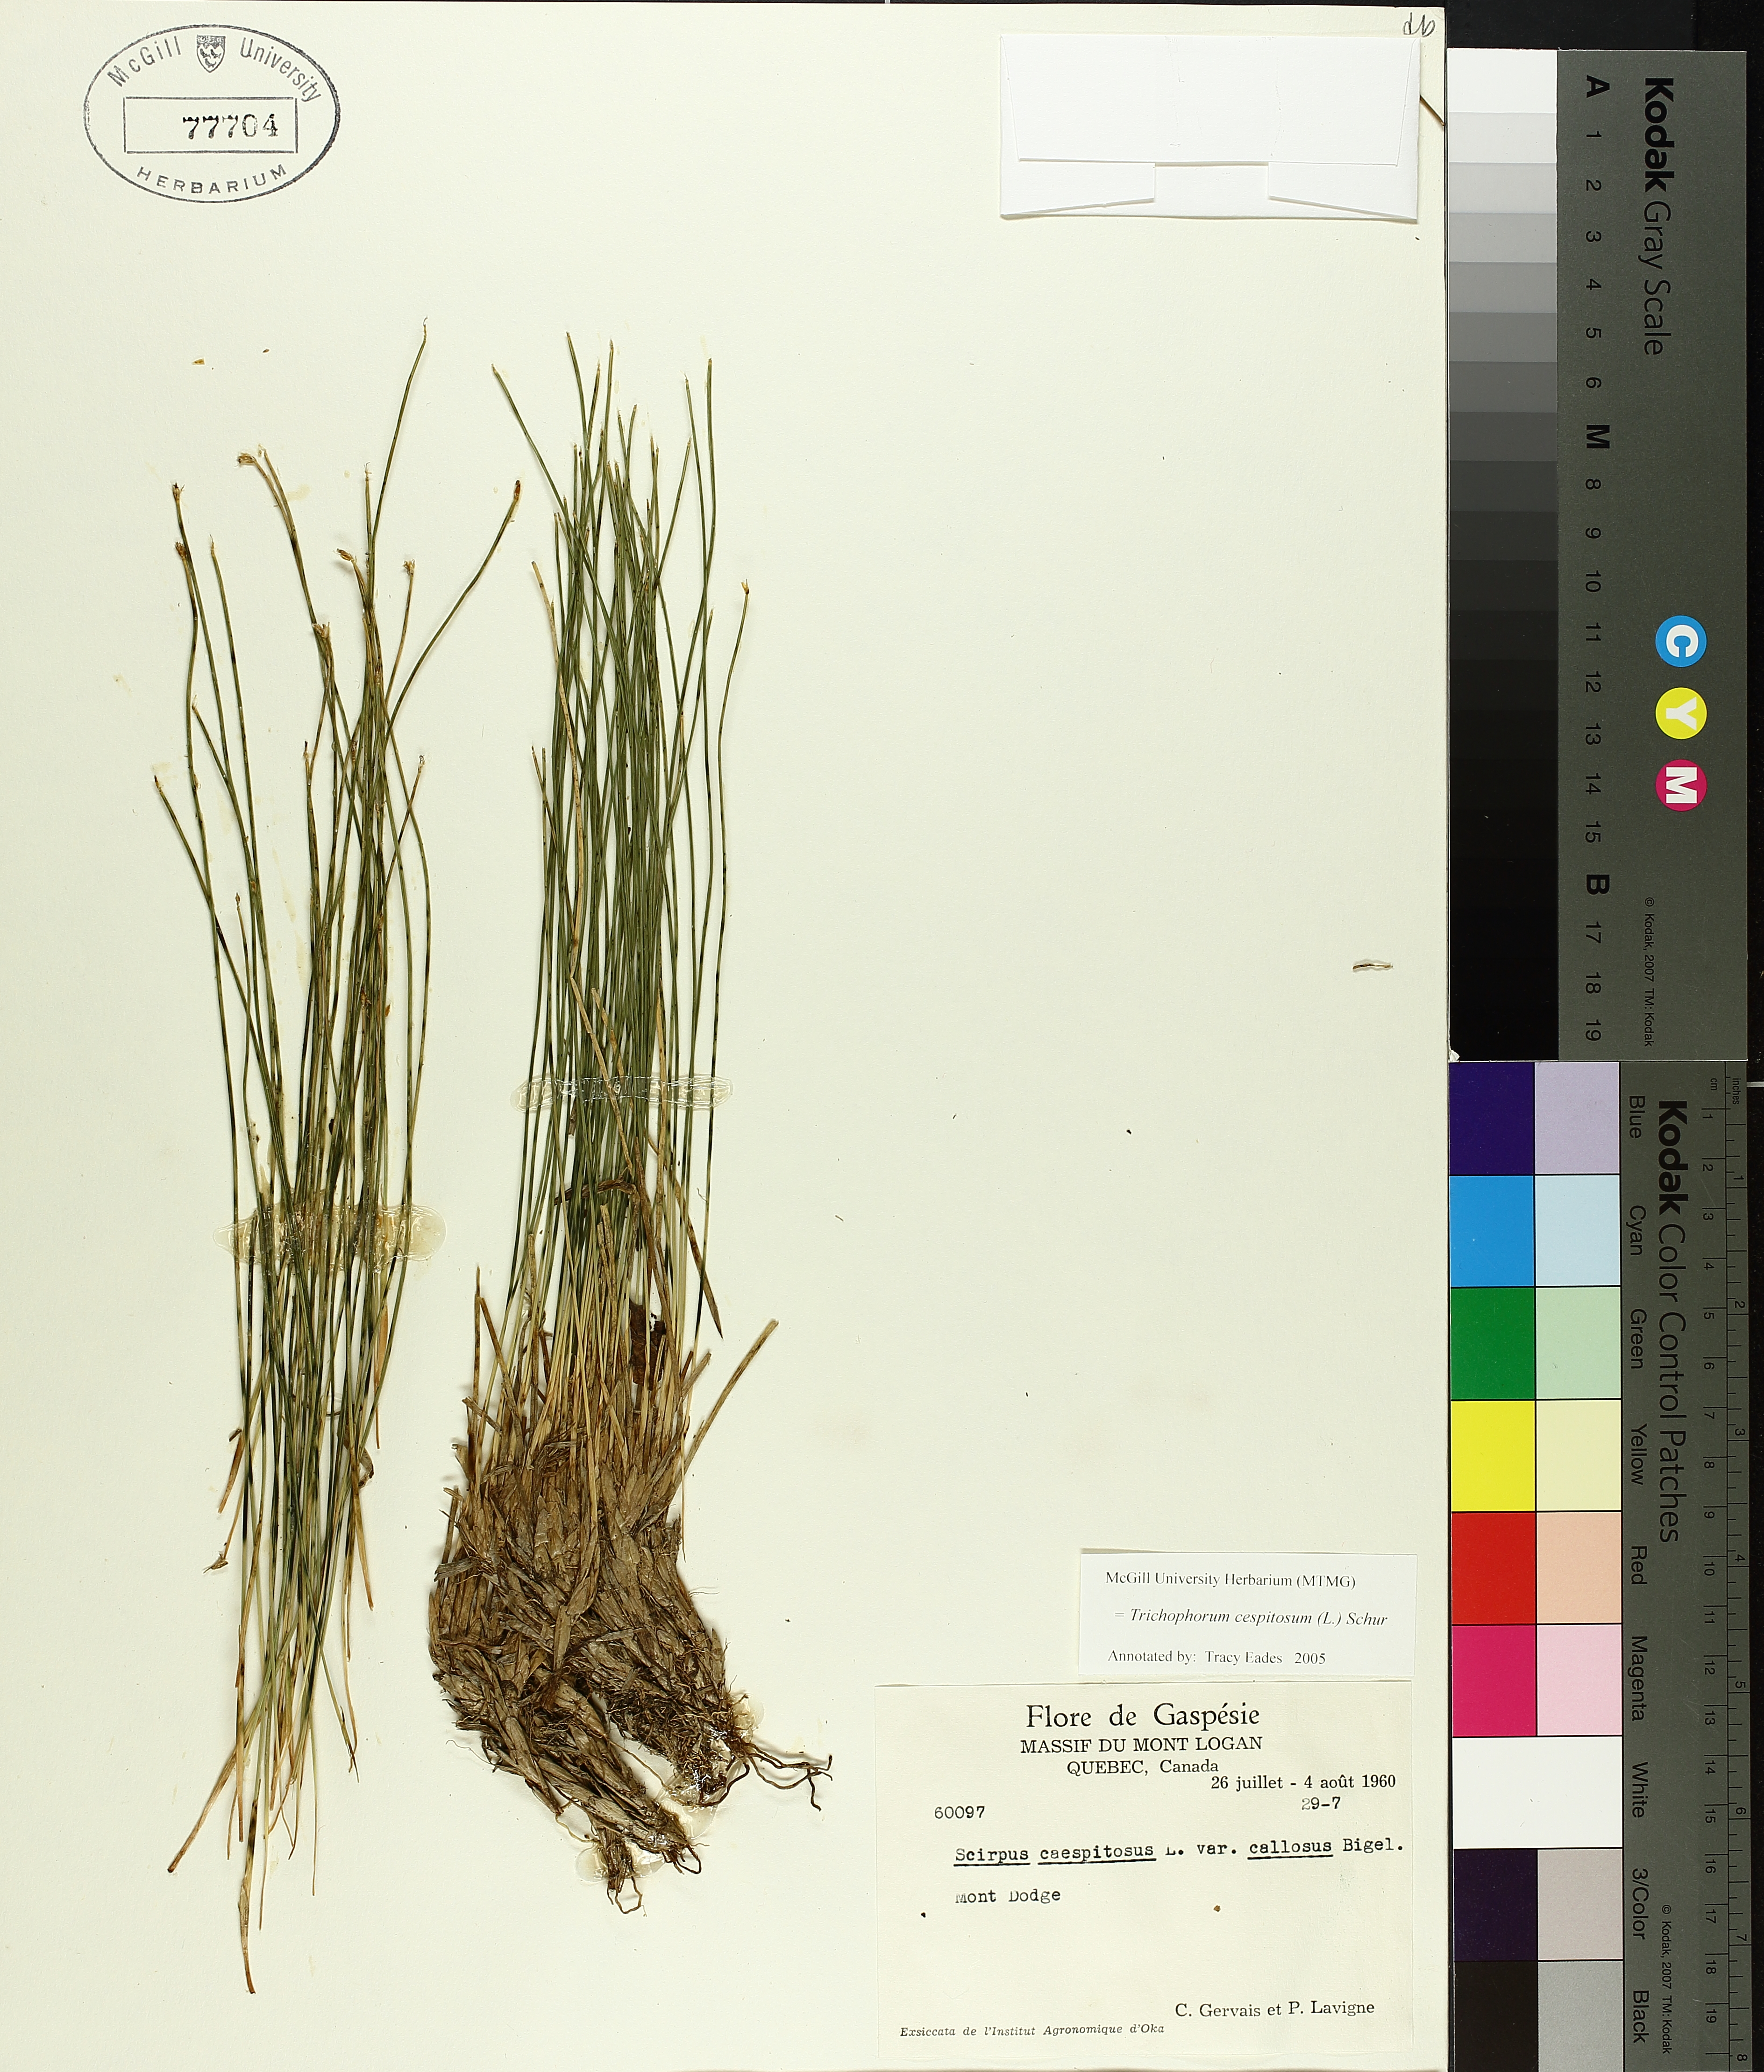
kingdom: Plantae
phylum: Tracheophyta
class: Liliopsida
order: Poales
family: Cyperaceae
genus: Trichophorum
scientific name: Trichophorum cespitosum
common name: Cespitose bulrush
